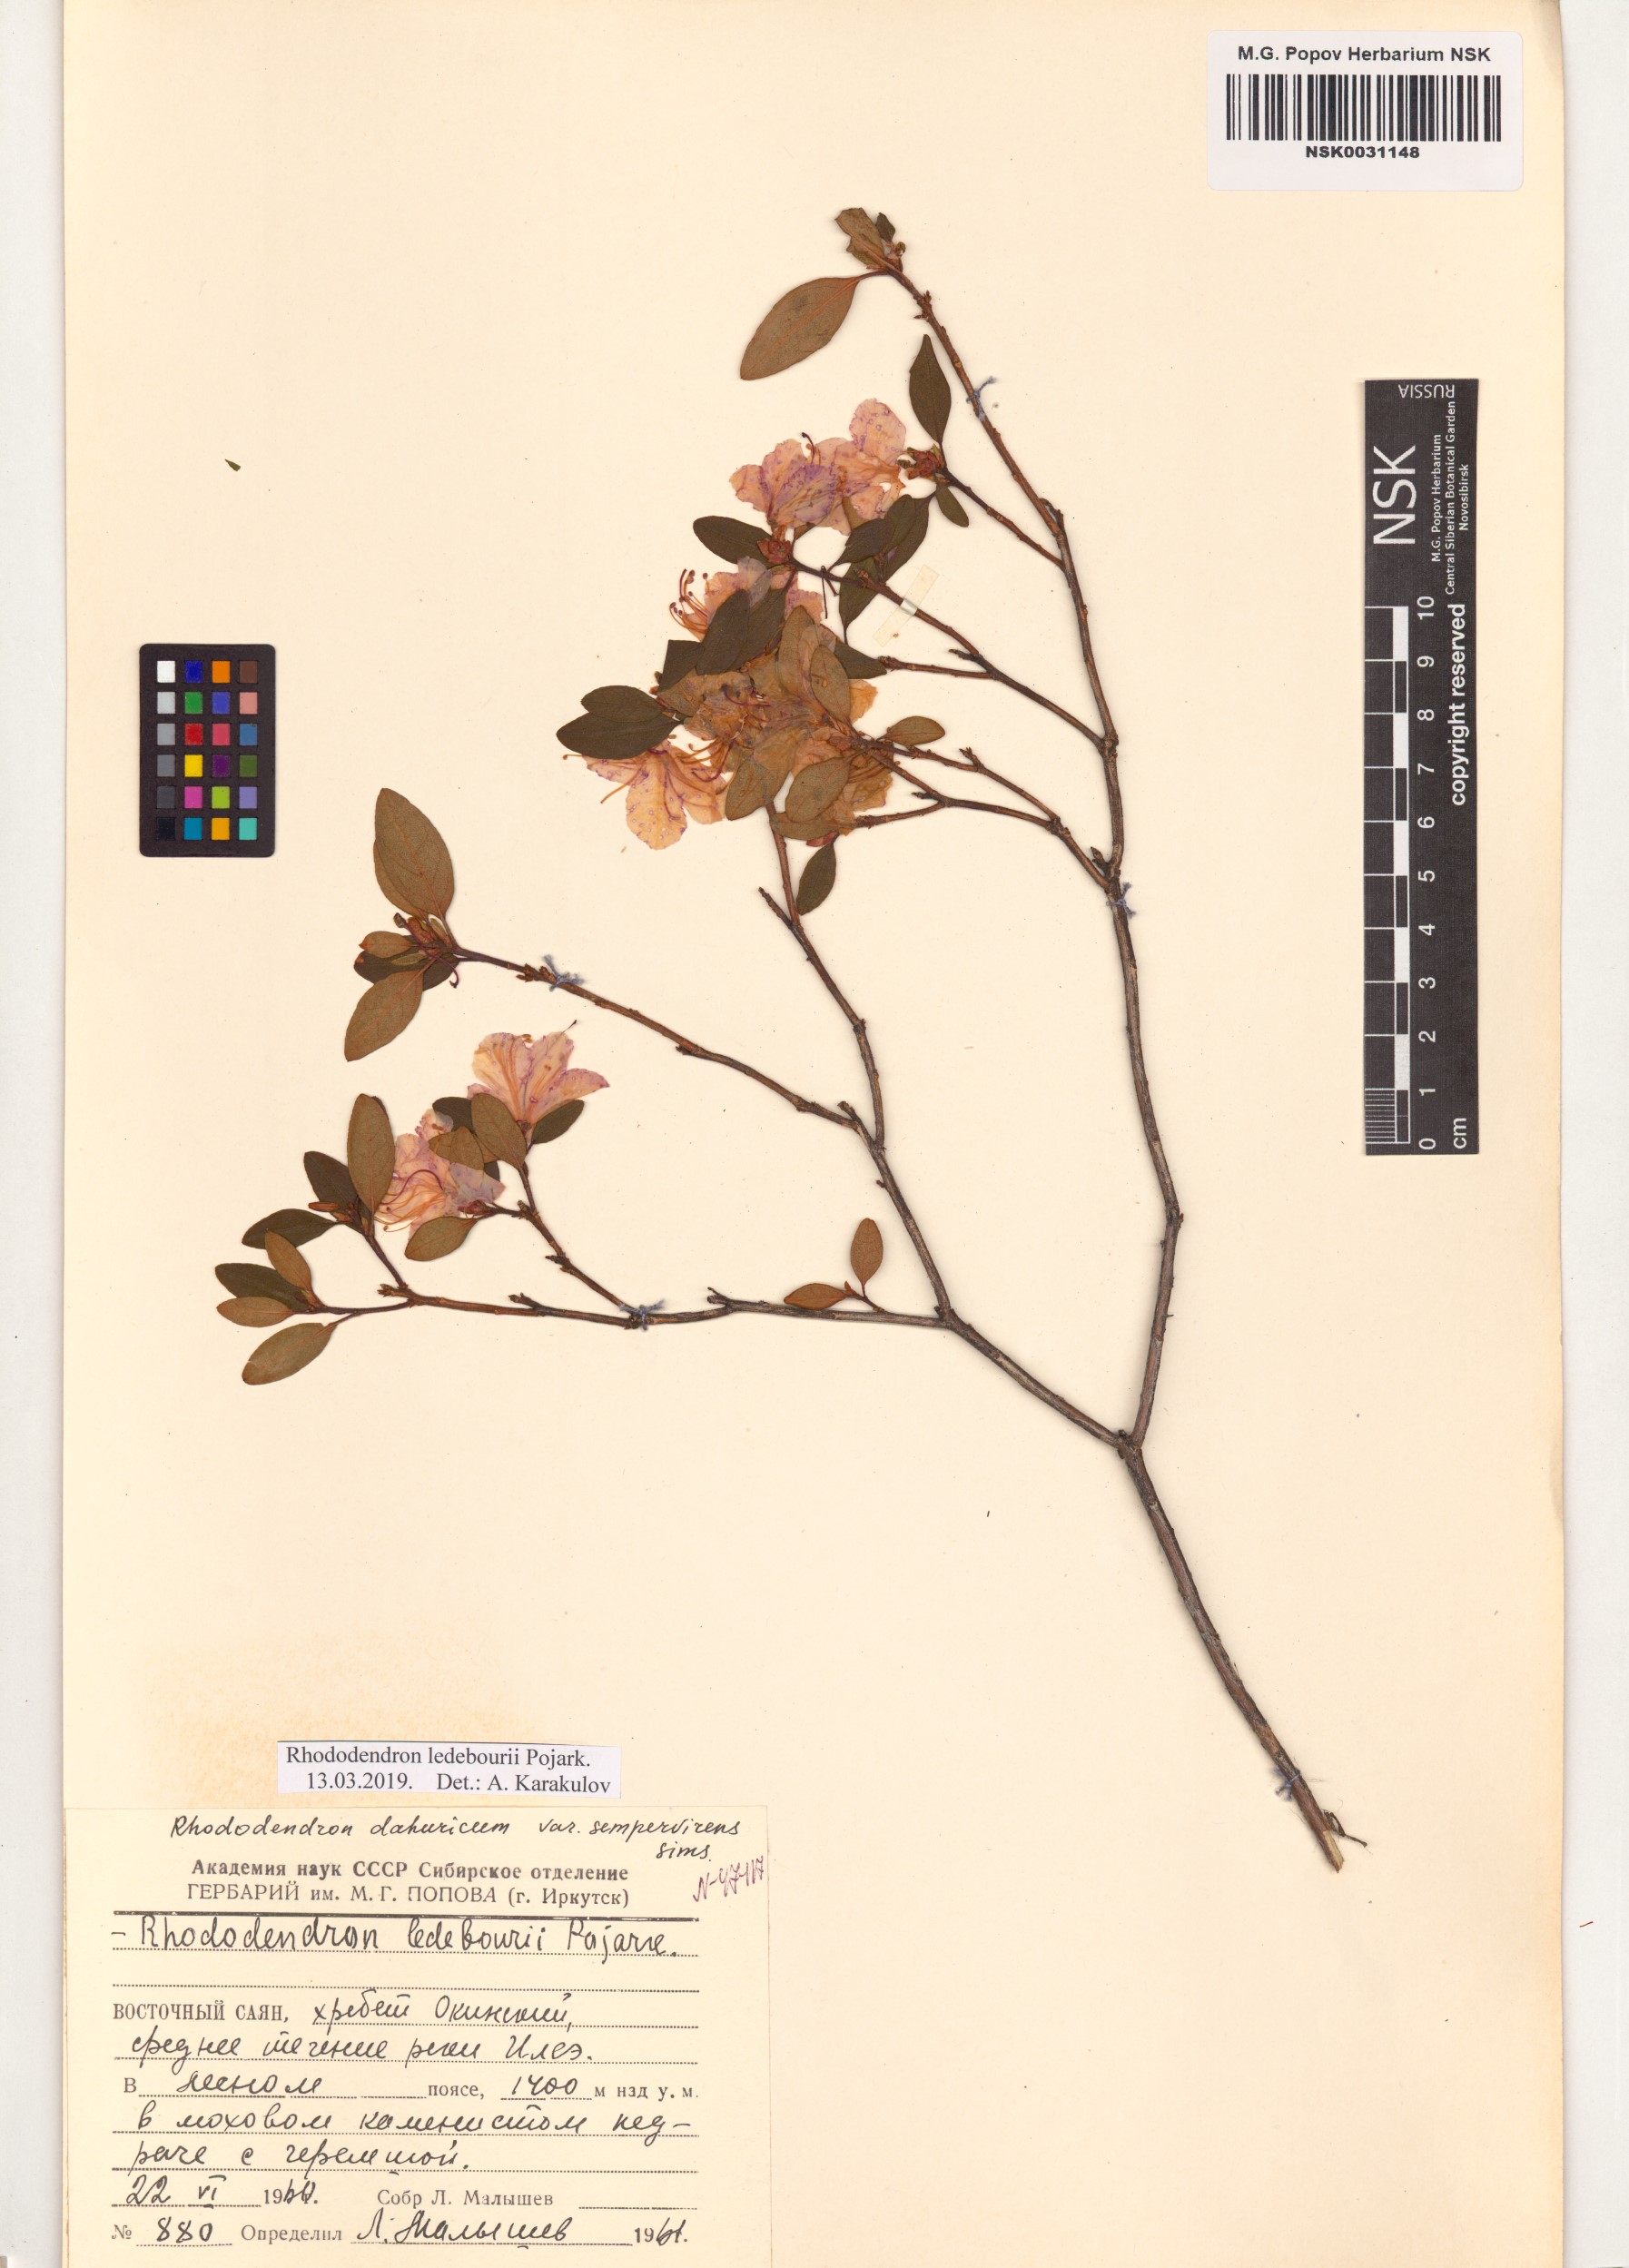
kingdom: Plantae
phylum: Tracheophyta
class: Magnoliopsida
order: Ericales
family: Ericaceae
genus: Rhododendron
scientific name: Rhododendron dauricum
